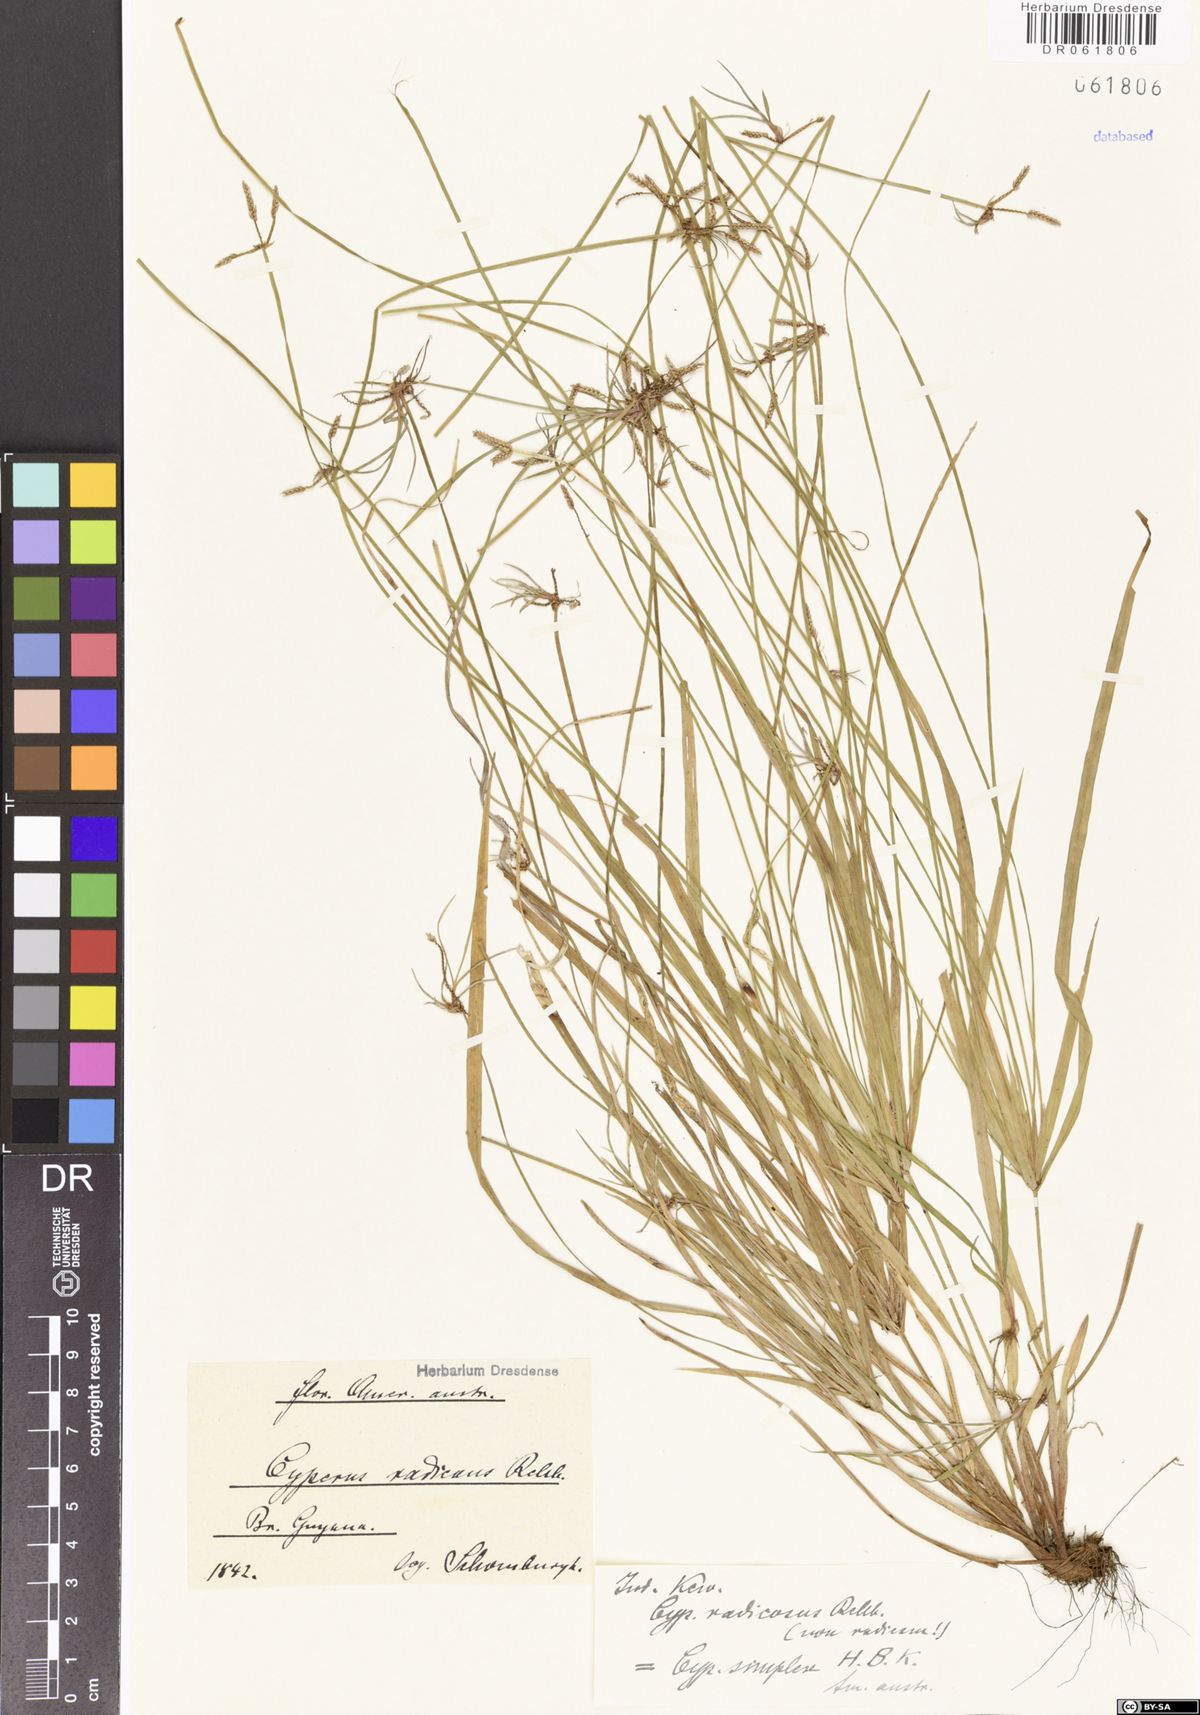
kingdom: Plantae
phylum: Tracheophyta
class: Liliopsida
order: Poales
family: Cyperaceae
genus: Cyperus
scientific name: Cyperus simplex
